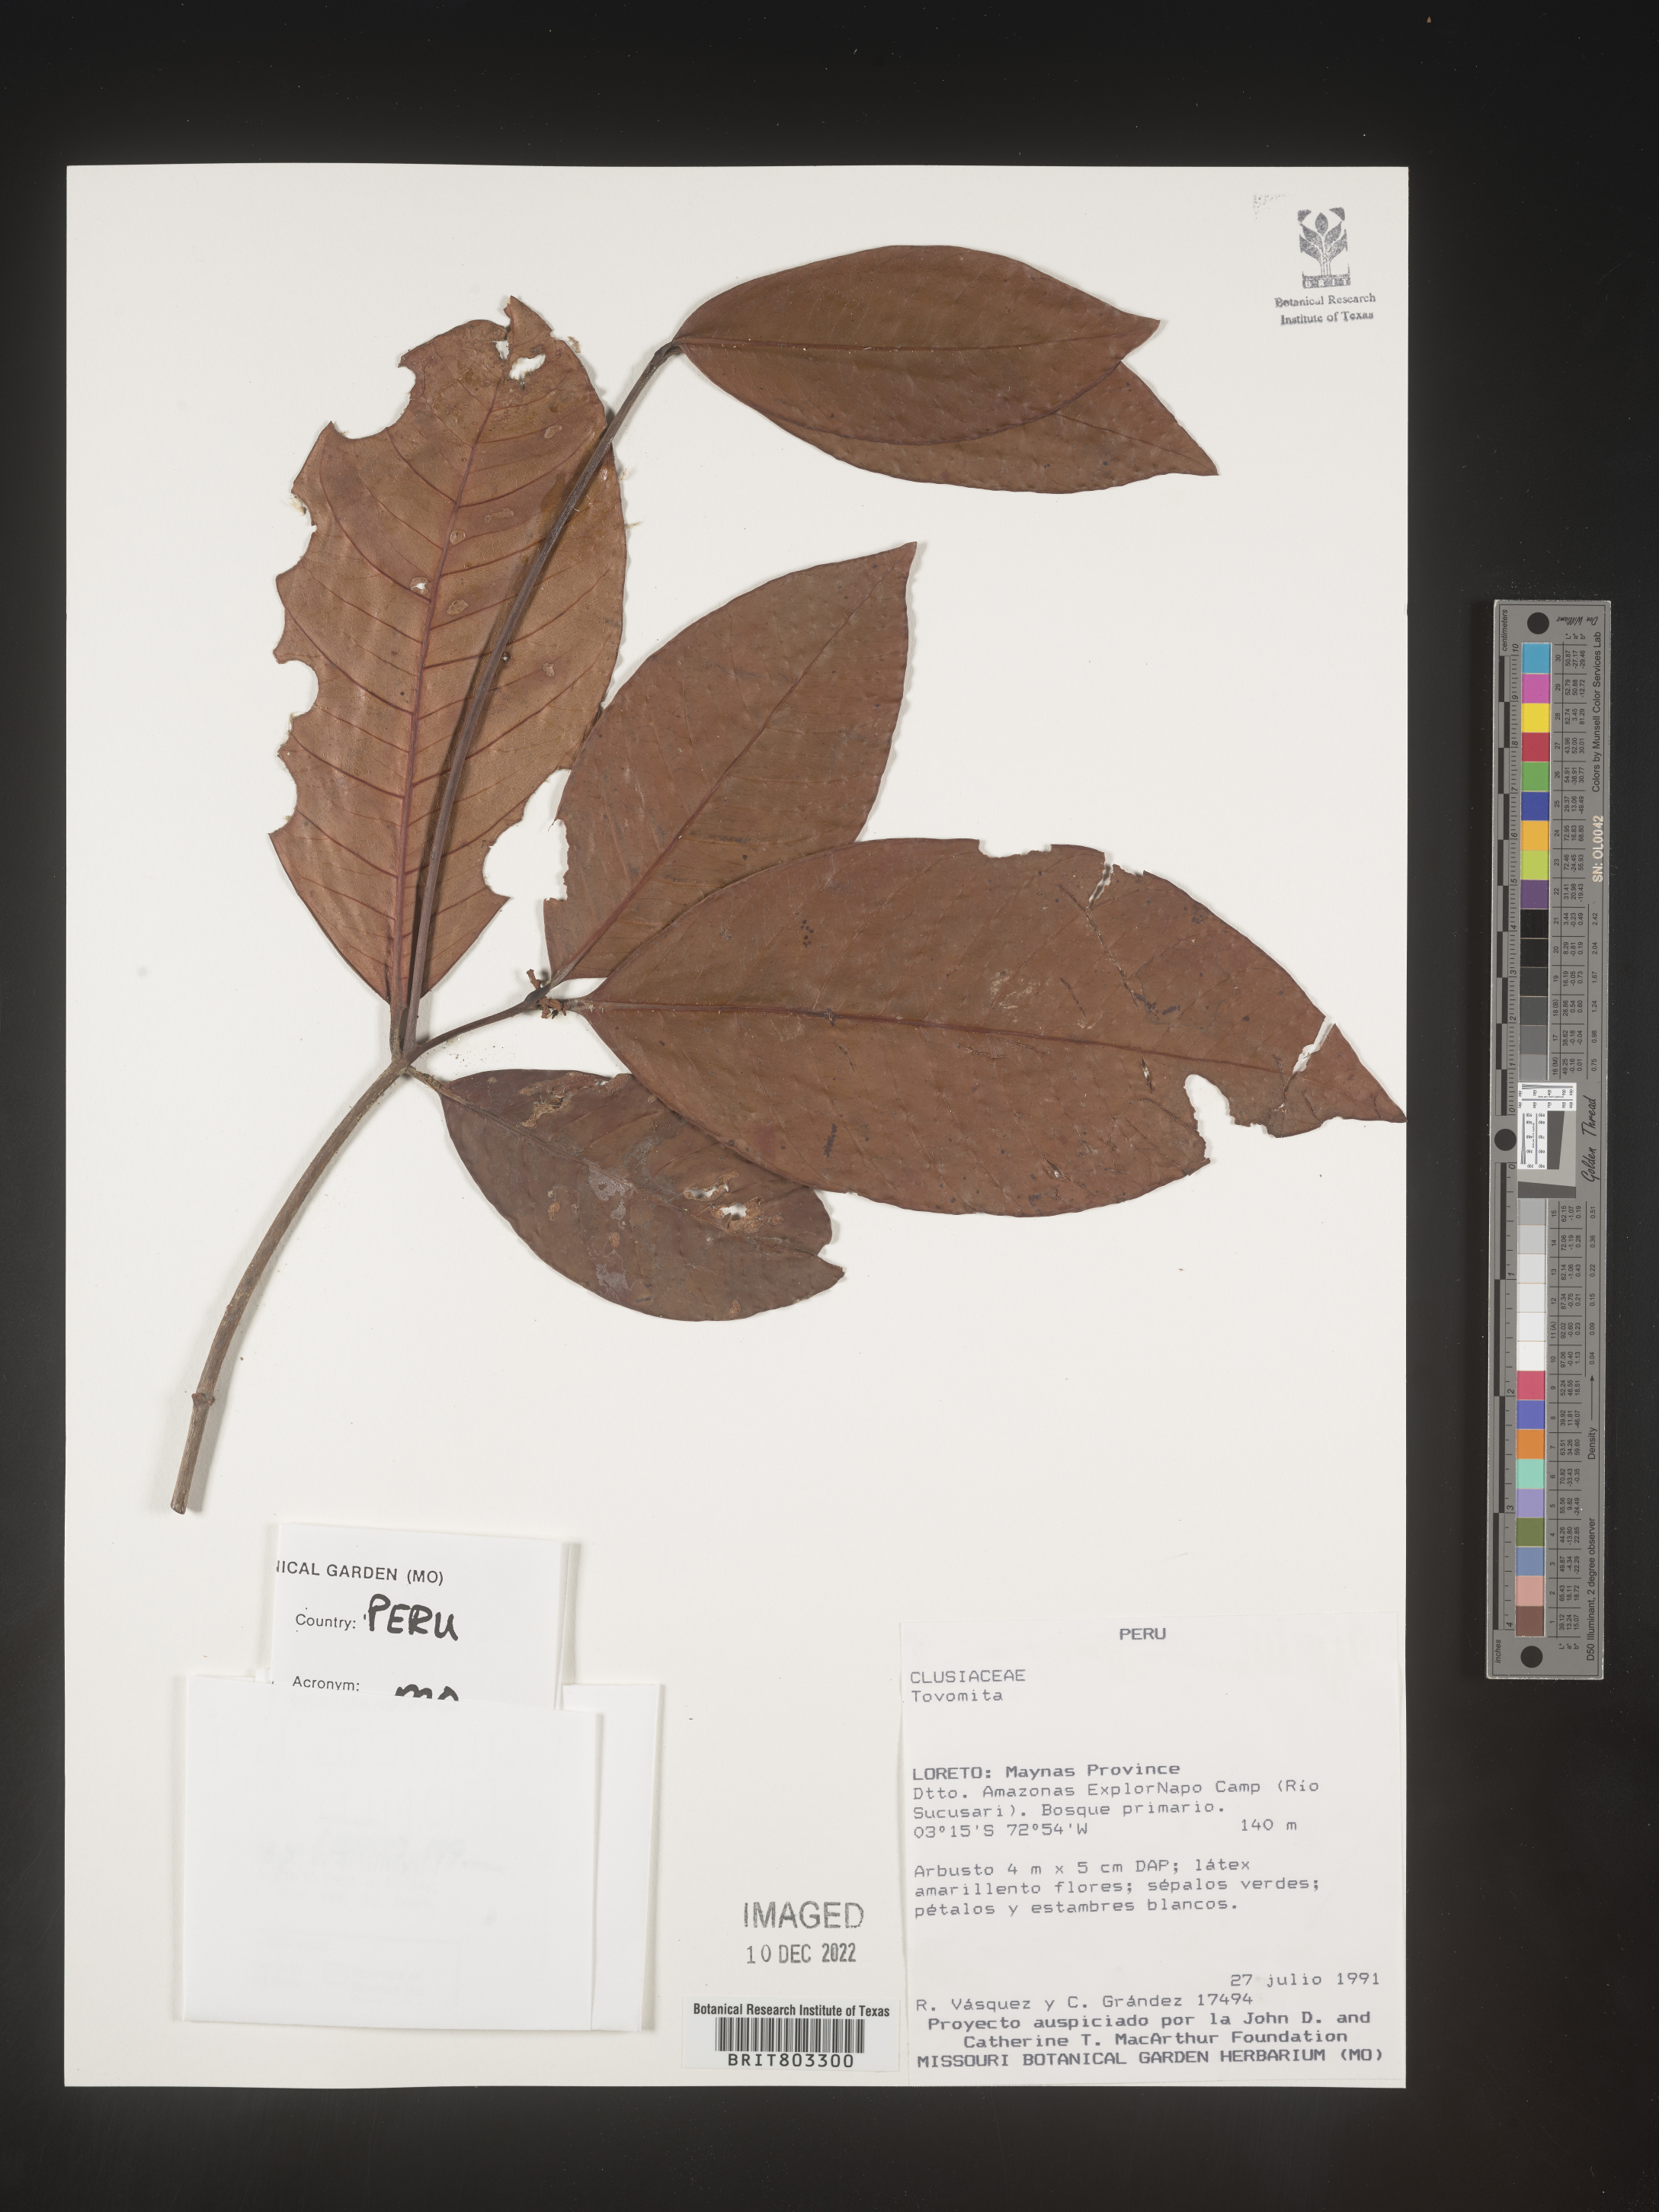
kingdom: Plantae
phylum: Tracheophyta
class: Magnoliopsida
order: Malpighiales
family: Clusiaceae
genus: Tovomita
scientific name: Tovomita
